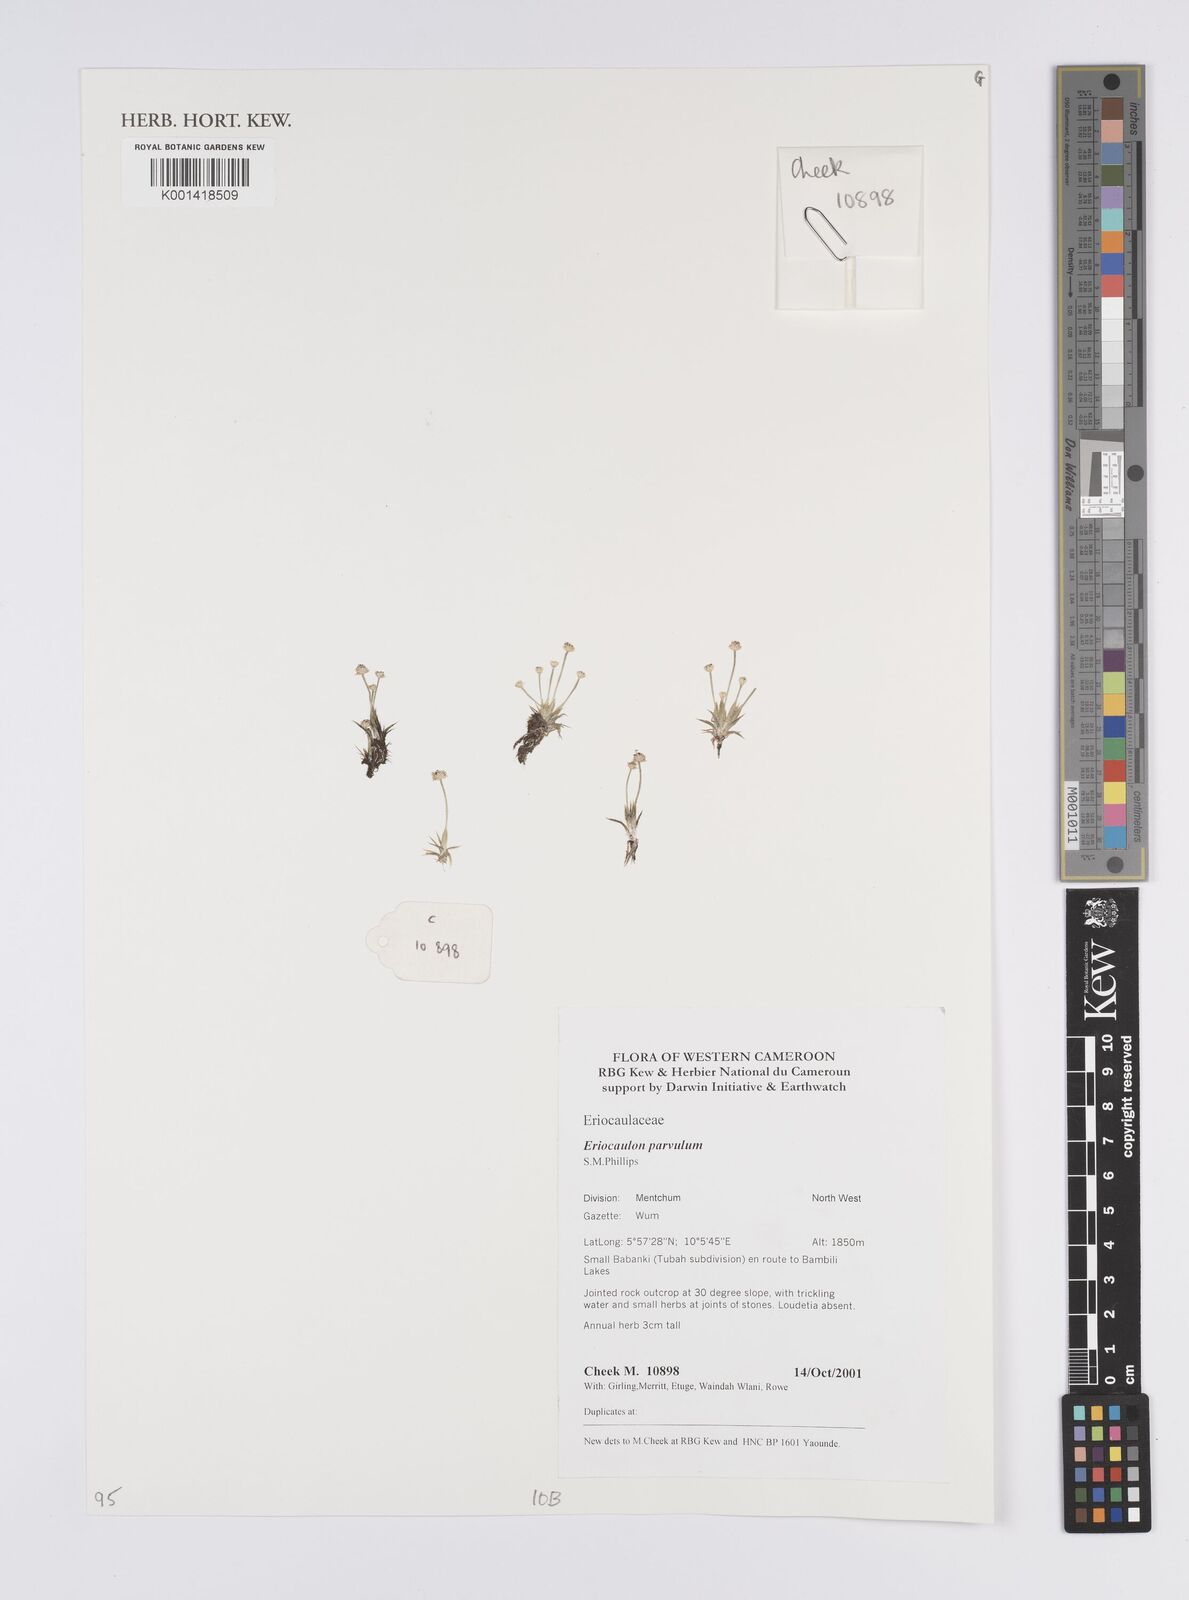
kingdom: Plantae
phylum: Tracheophyta
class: Liliopsida
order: Poales
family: Eriocaulaceae
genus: Eriocaulon
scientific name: Eriocaulon parvulum
